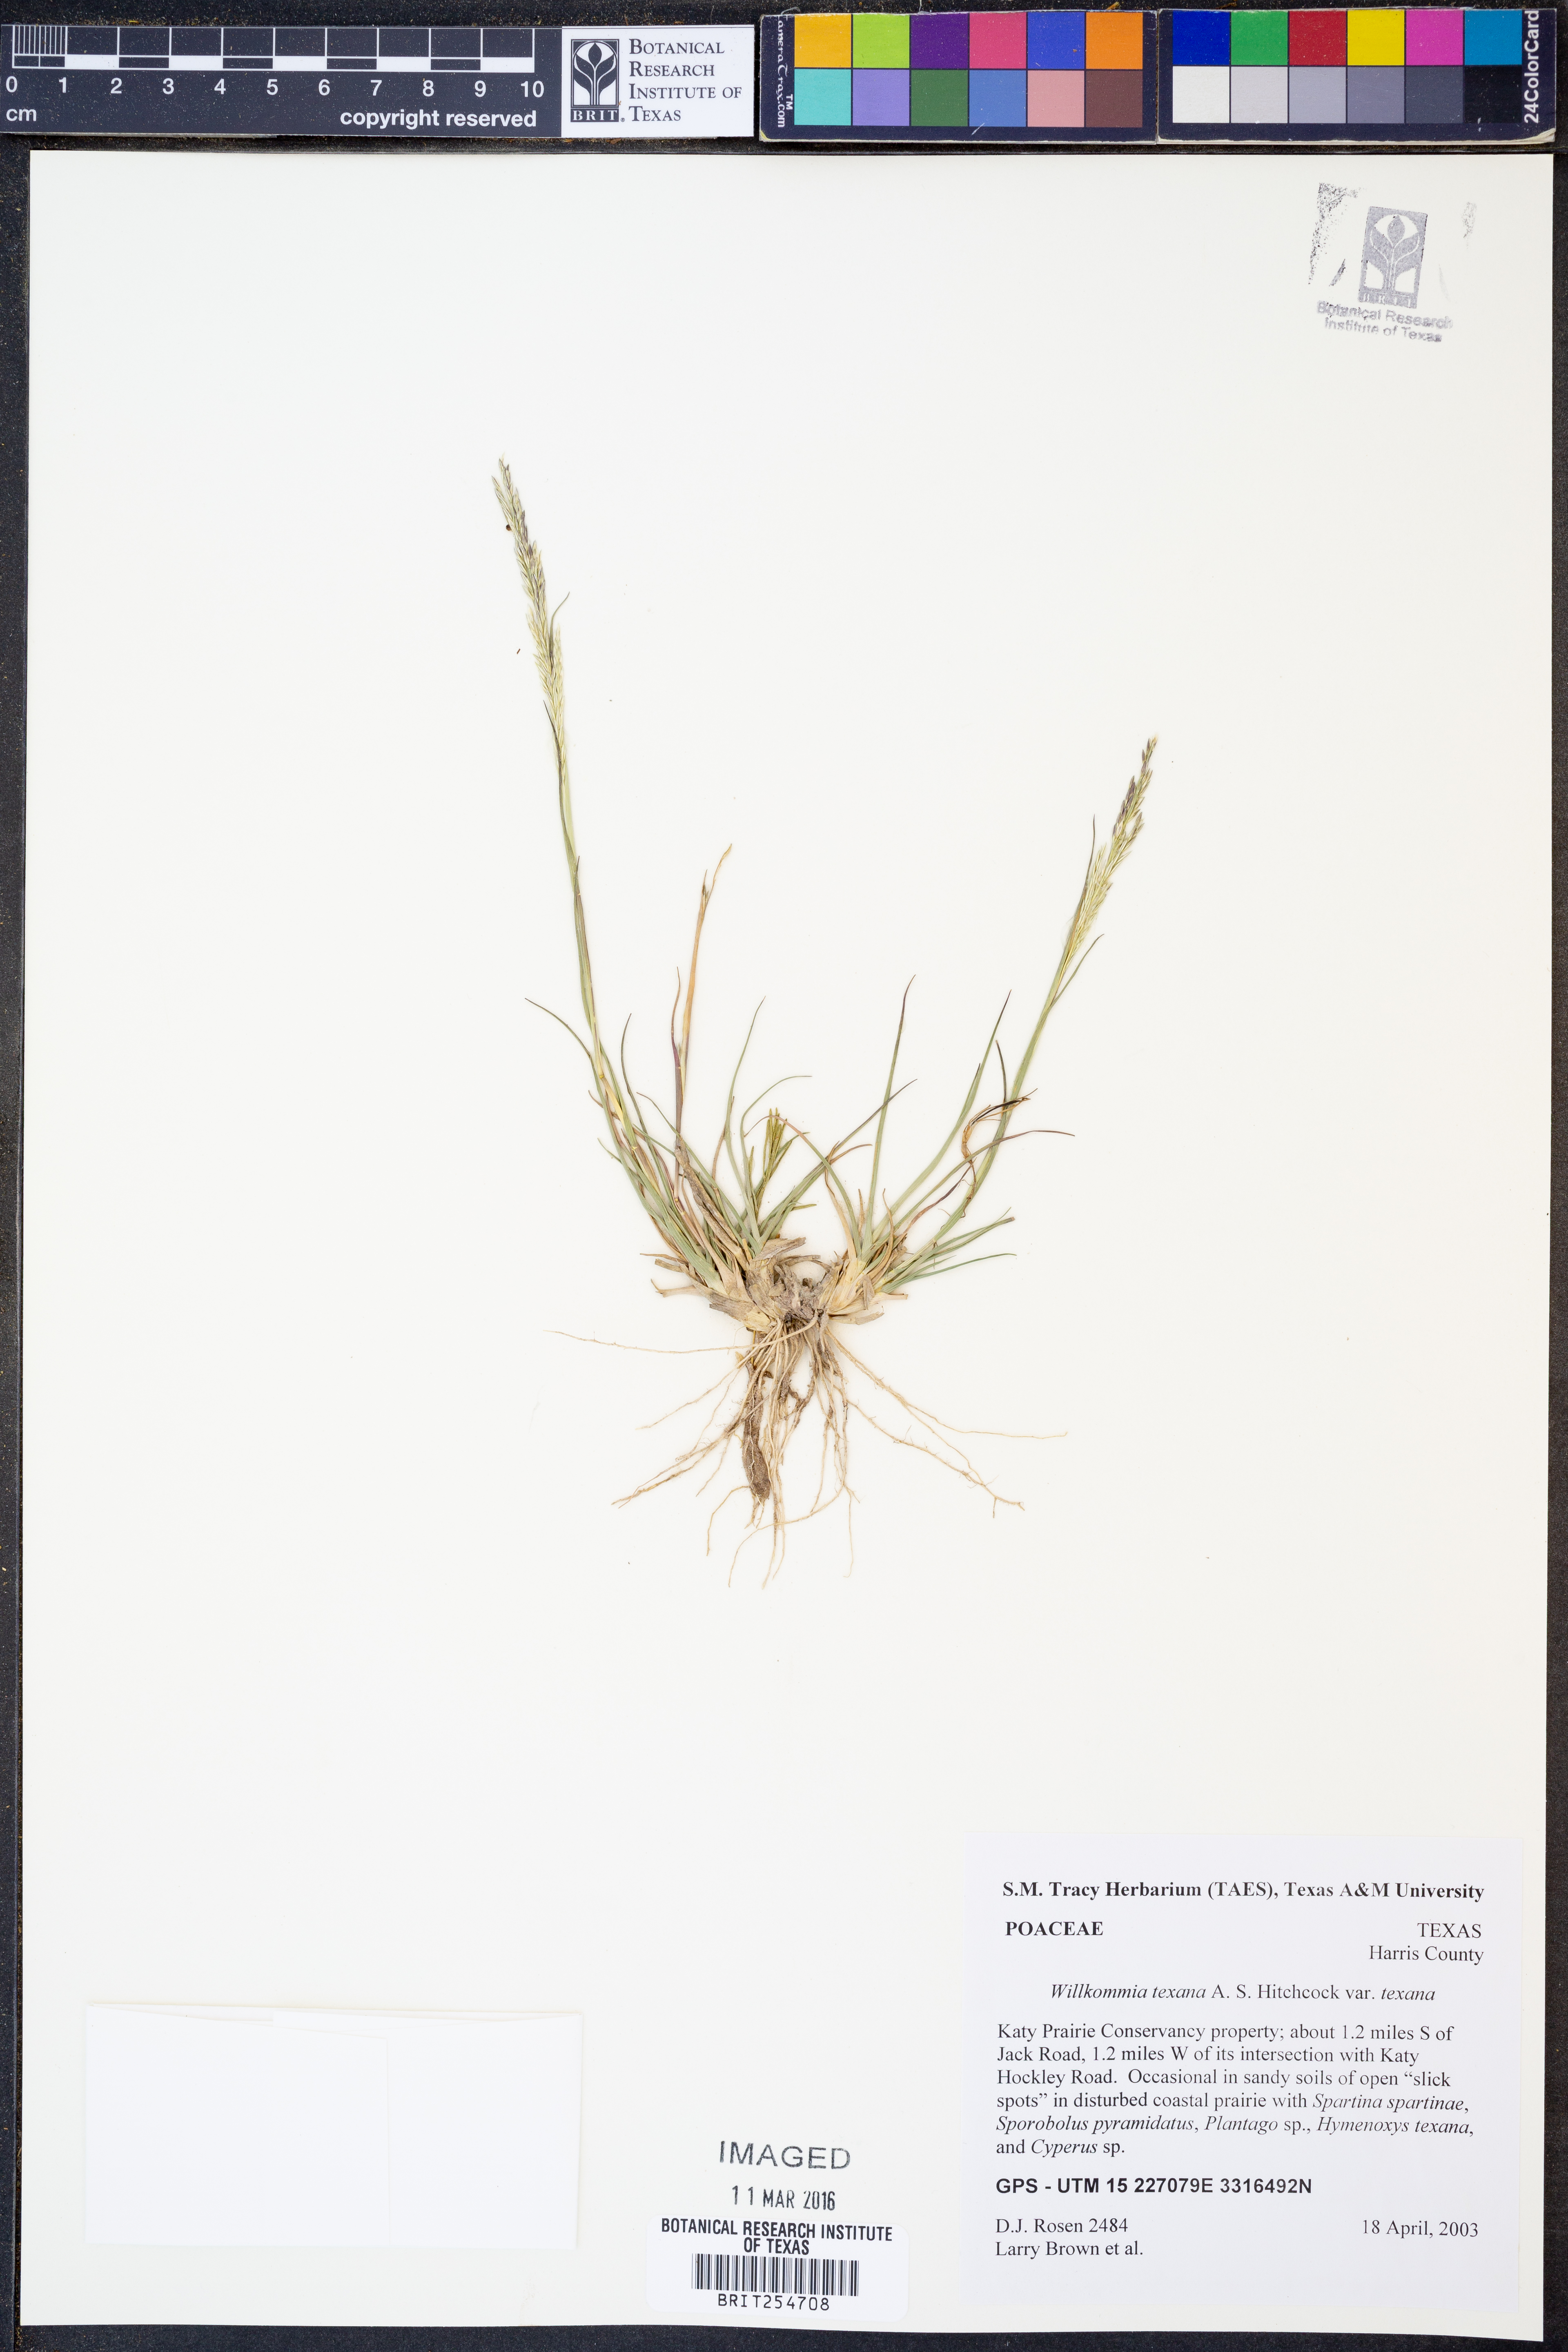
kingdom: Plantae
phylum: Tracheophyta
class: Liliopsida
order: Poales
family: Poaceae
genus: Willkommia
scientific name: Willkommia texana
